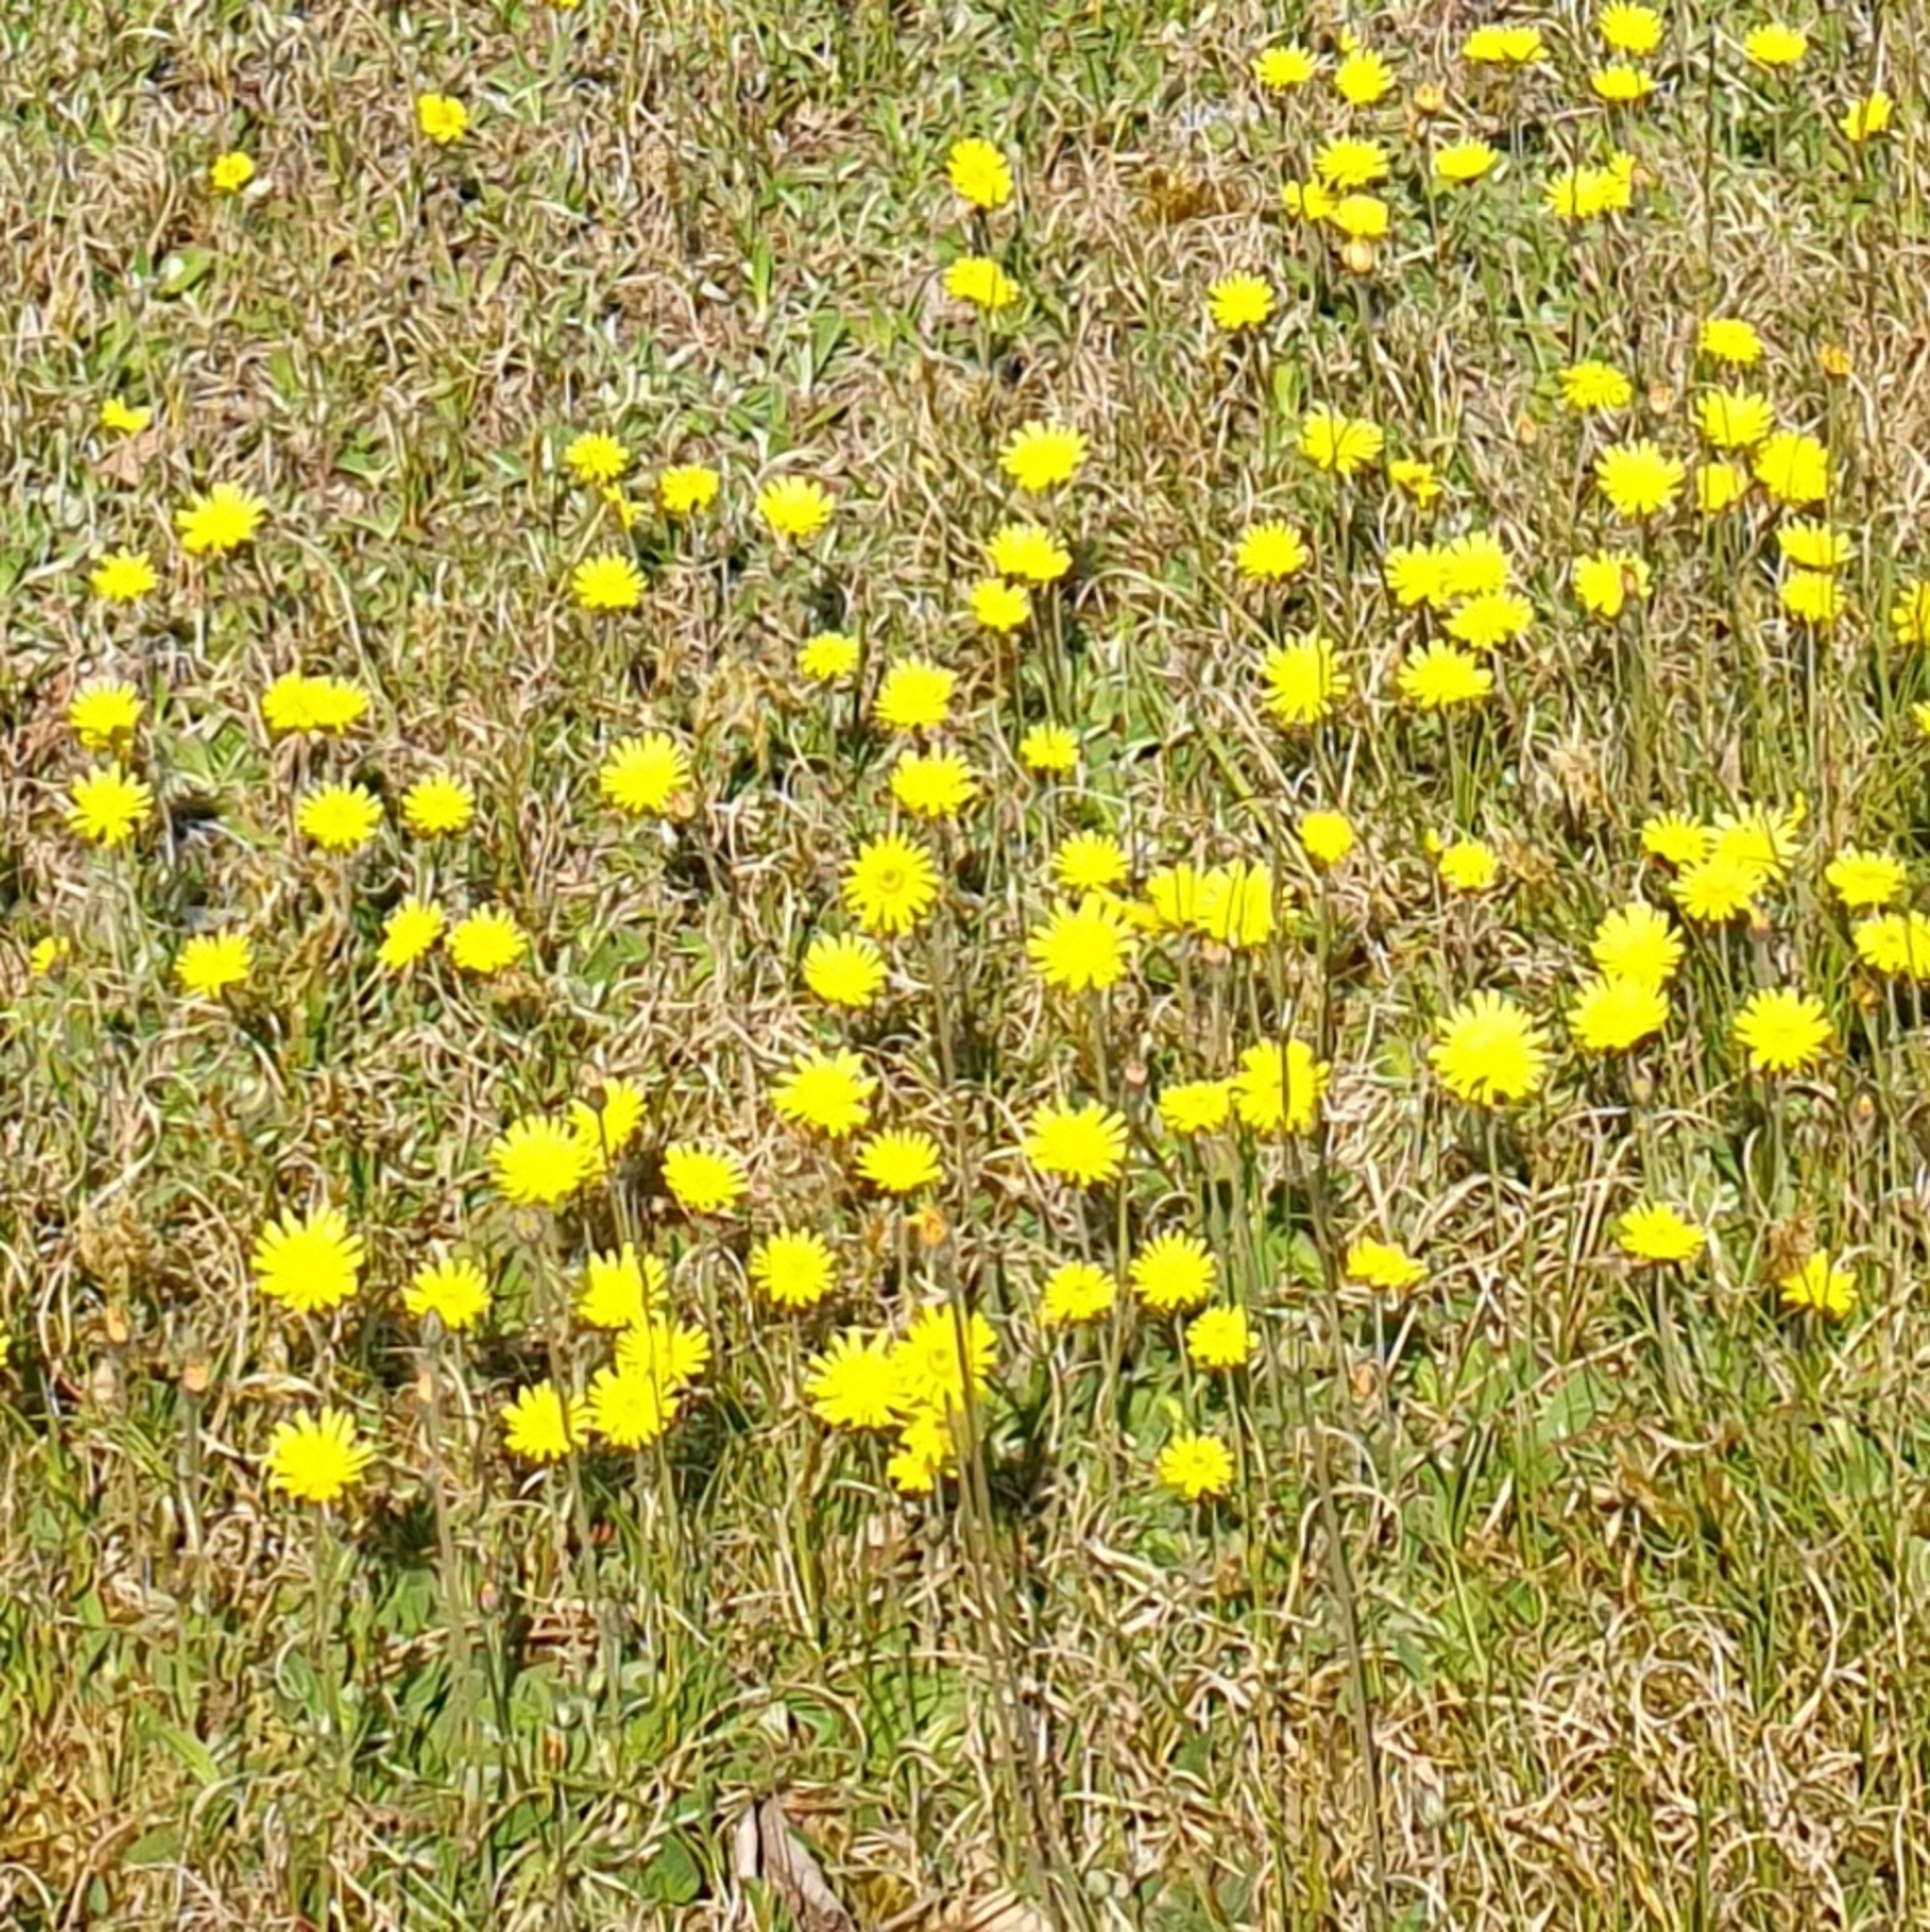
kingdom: Plantae
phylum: Tracheophyta
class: Magnoliopsida
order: Asterales
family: Asteraceae
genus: Pilosella
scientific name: Pilosella officinarum
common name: Håret høgeurt
